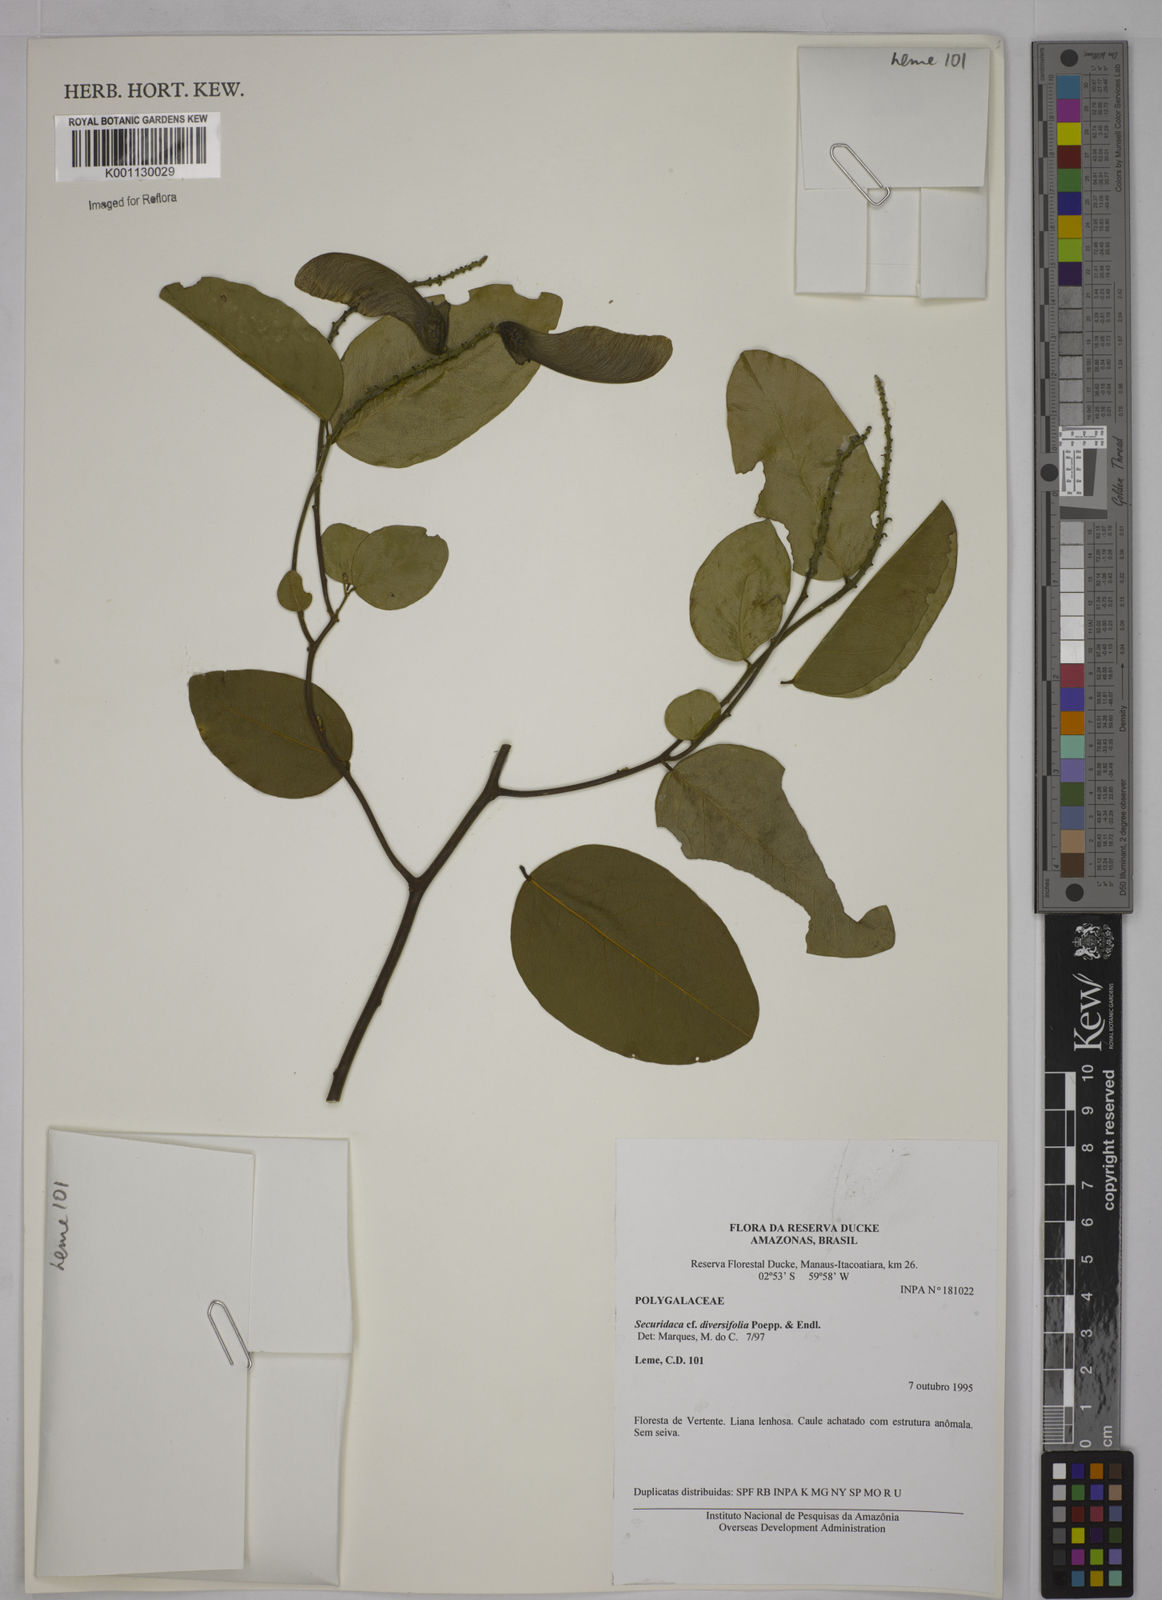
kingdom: Plantae
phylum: Tracheophyta
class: Magnoliopsida
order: Fabales
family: Polygalaceae
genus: Securidaca
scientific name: Securidaca diversifolia
